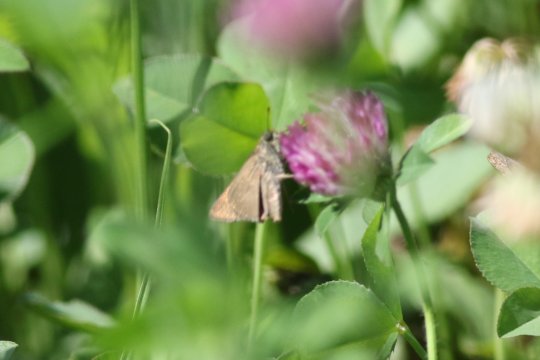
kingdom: Animalia
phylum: Arthropoda
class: Insecta
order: Lepidoptera
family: Hesperiidae
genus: Polites
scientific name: Polites themistocles
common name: Tawny-edged Skipper
